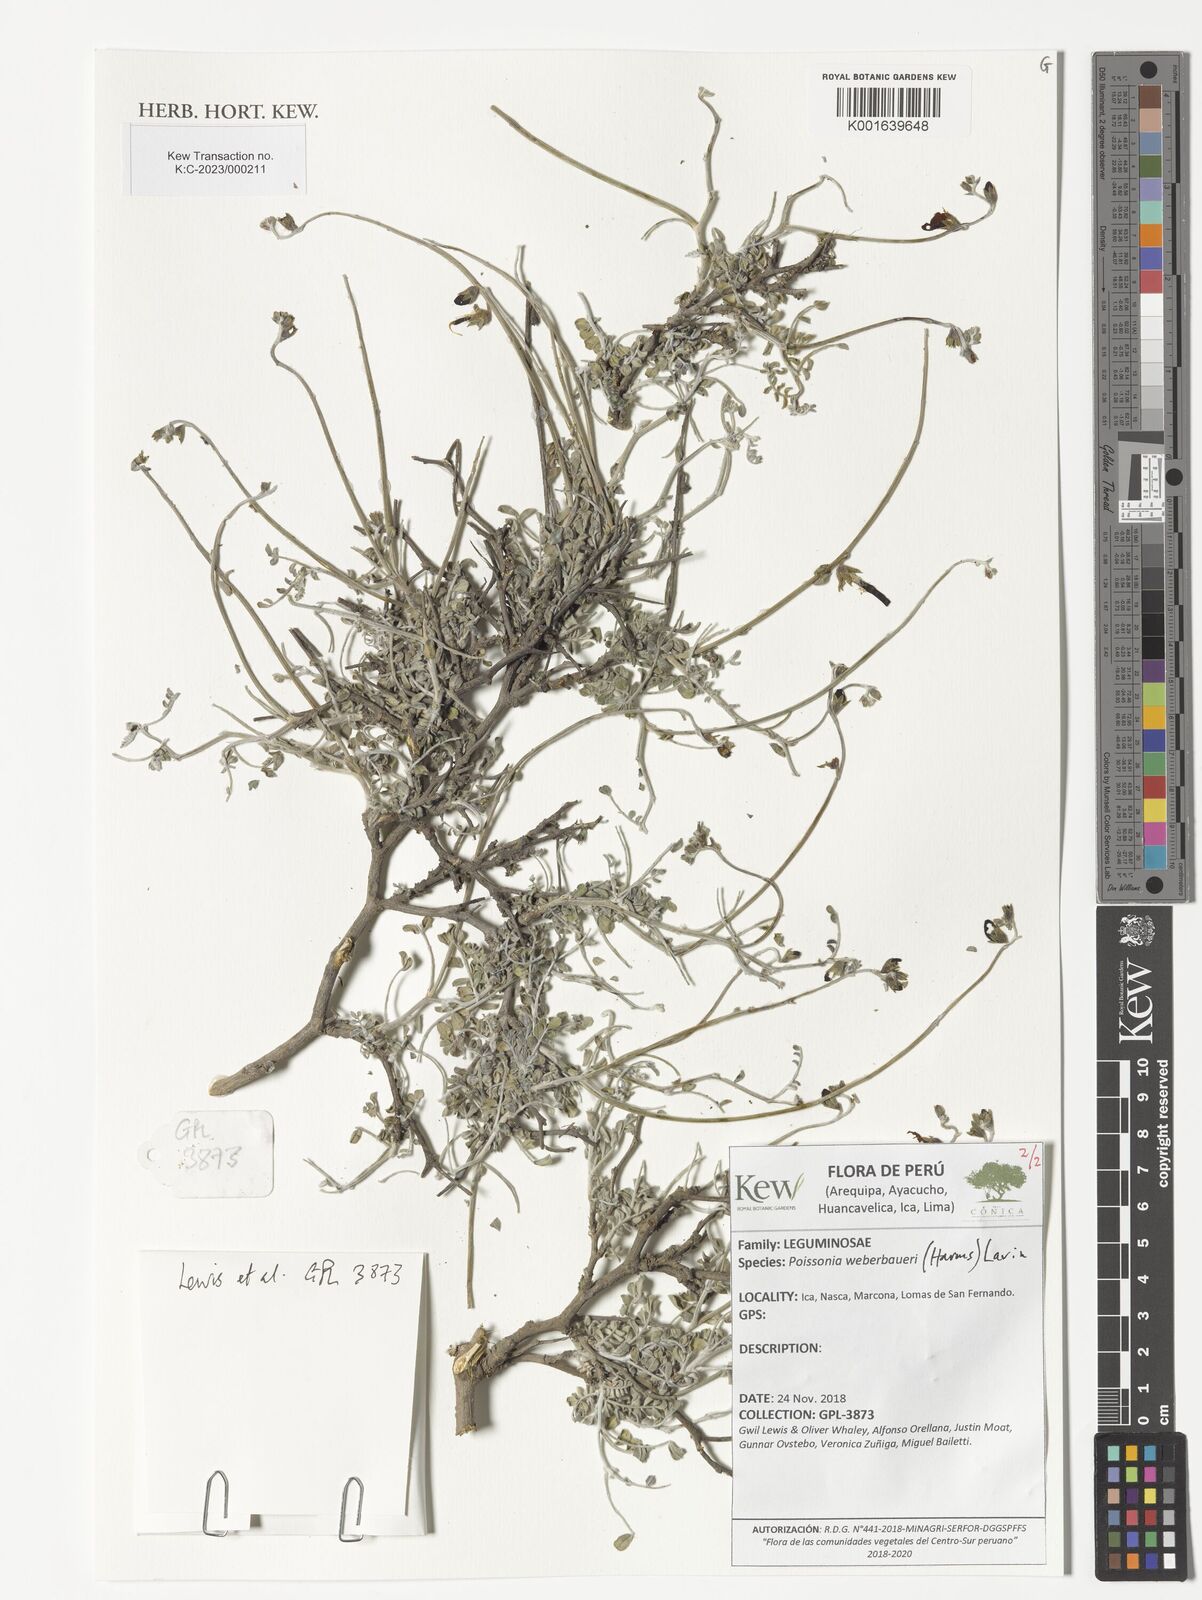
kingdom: Plantae
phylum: Tracheophyta
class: Magnoliopsida
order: Fabales
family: Fabaceae
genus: Poissonia
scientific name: Poissonia weberbaueri
